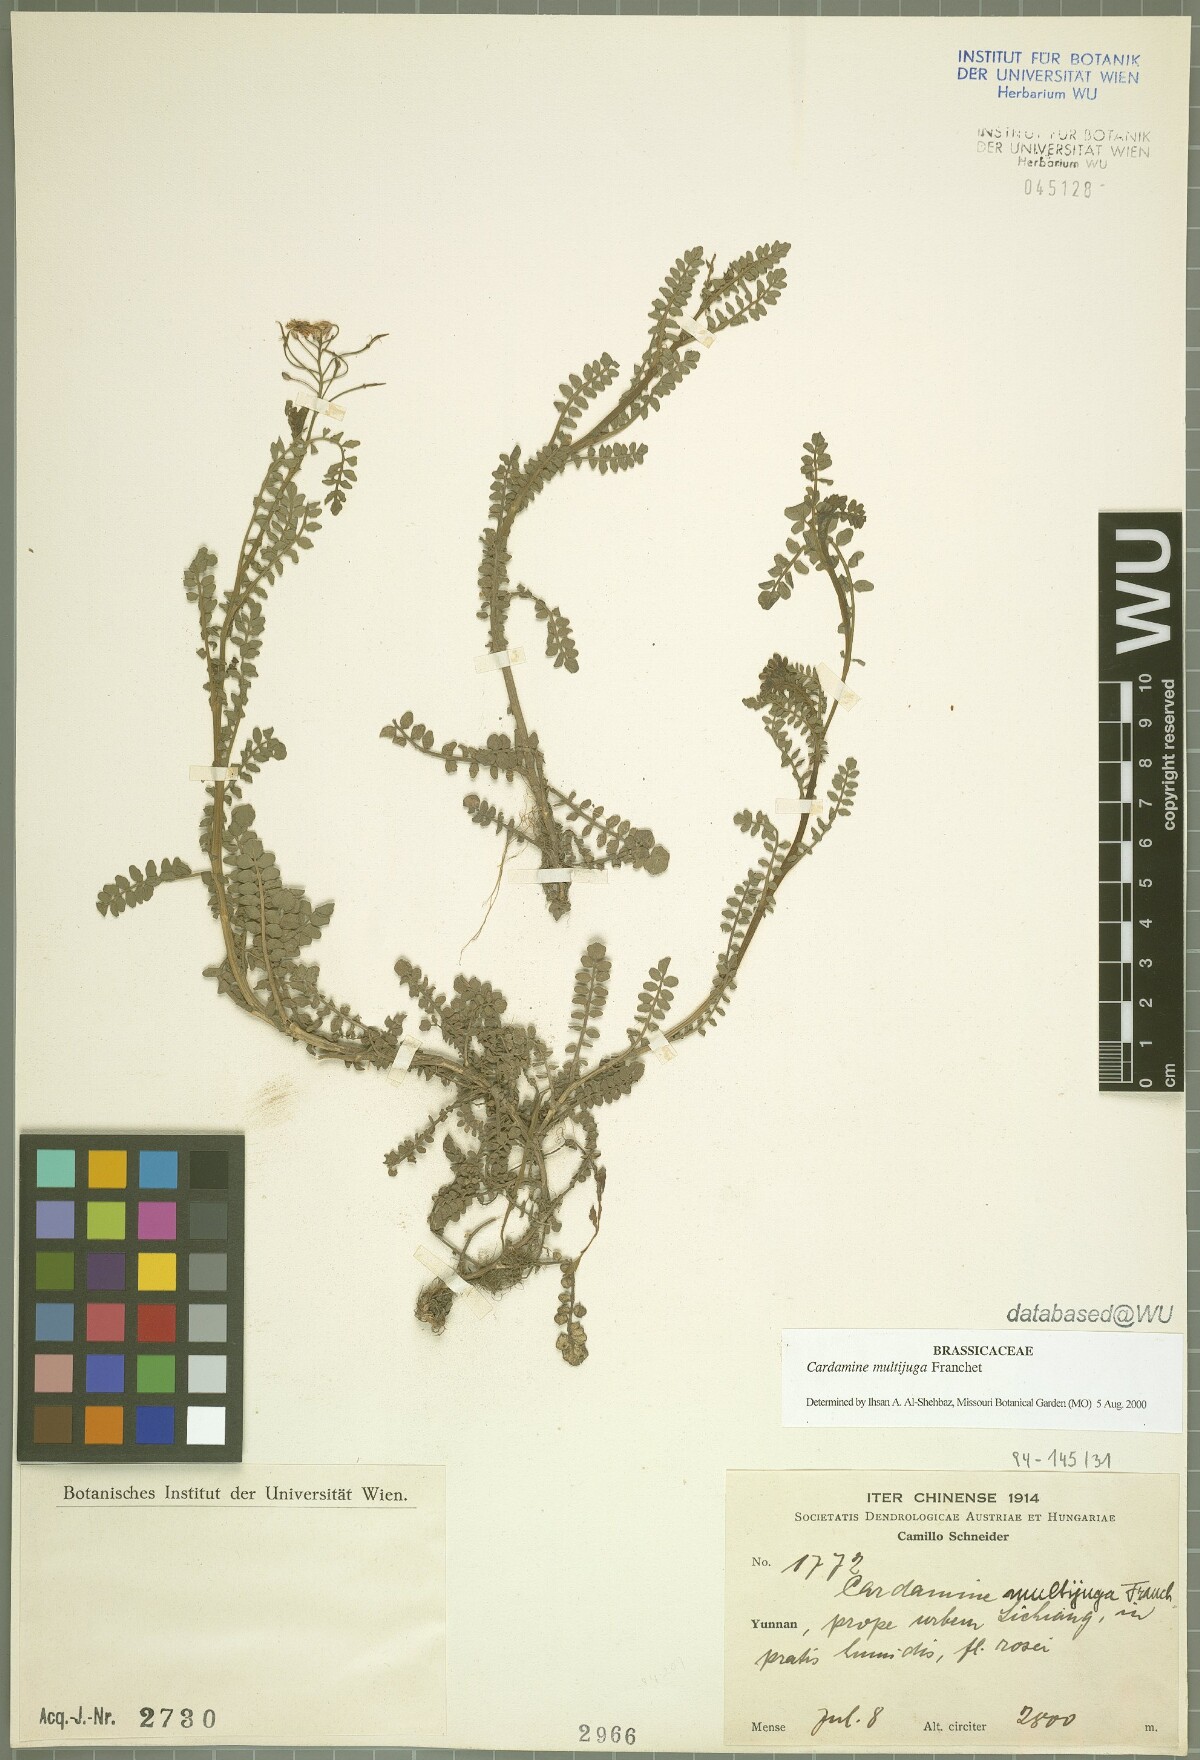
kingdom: Plantae
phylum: Tracheophyta
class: Magnoliopsida
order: Brassicales
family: Brassicaceae
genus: Cardamine
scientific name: Cardamine multijuga
